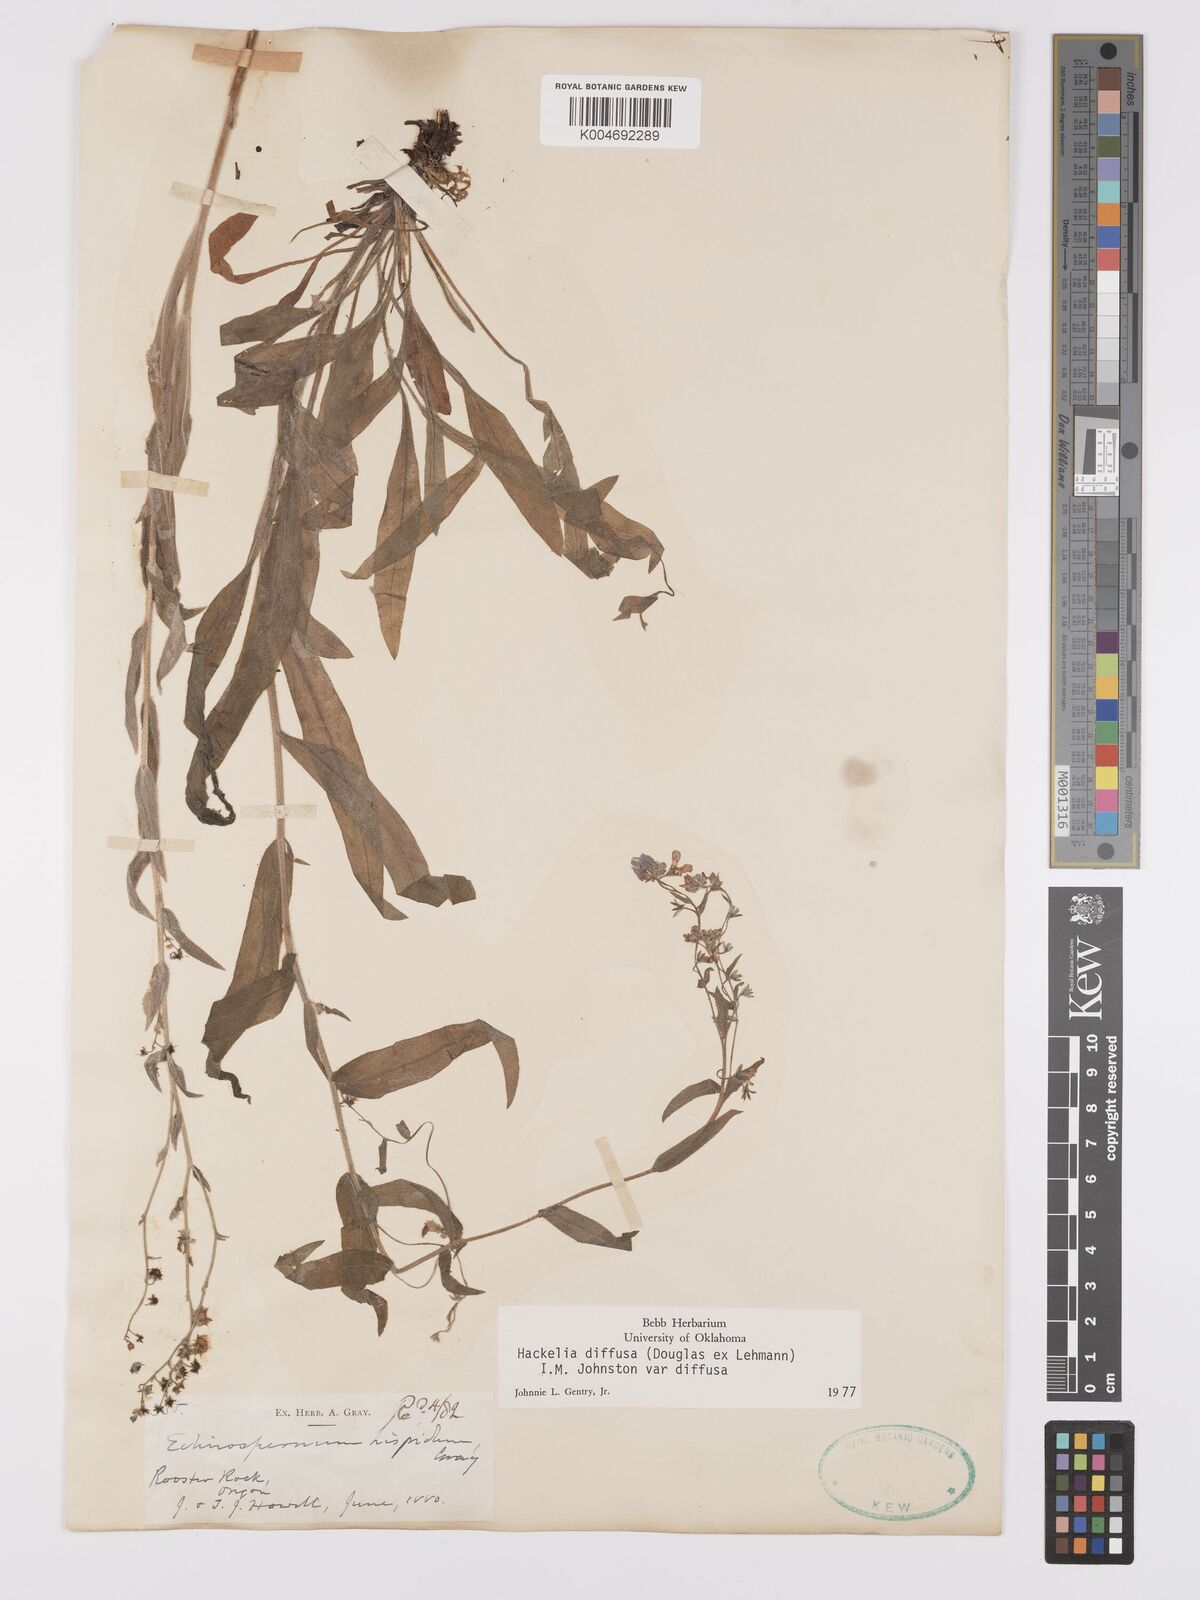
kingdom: Plantae
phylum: Tracheophyta
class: Magnoliopsida
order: Boraginales
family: Boraginaceae
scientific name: Boraginaceae
